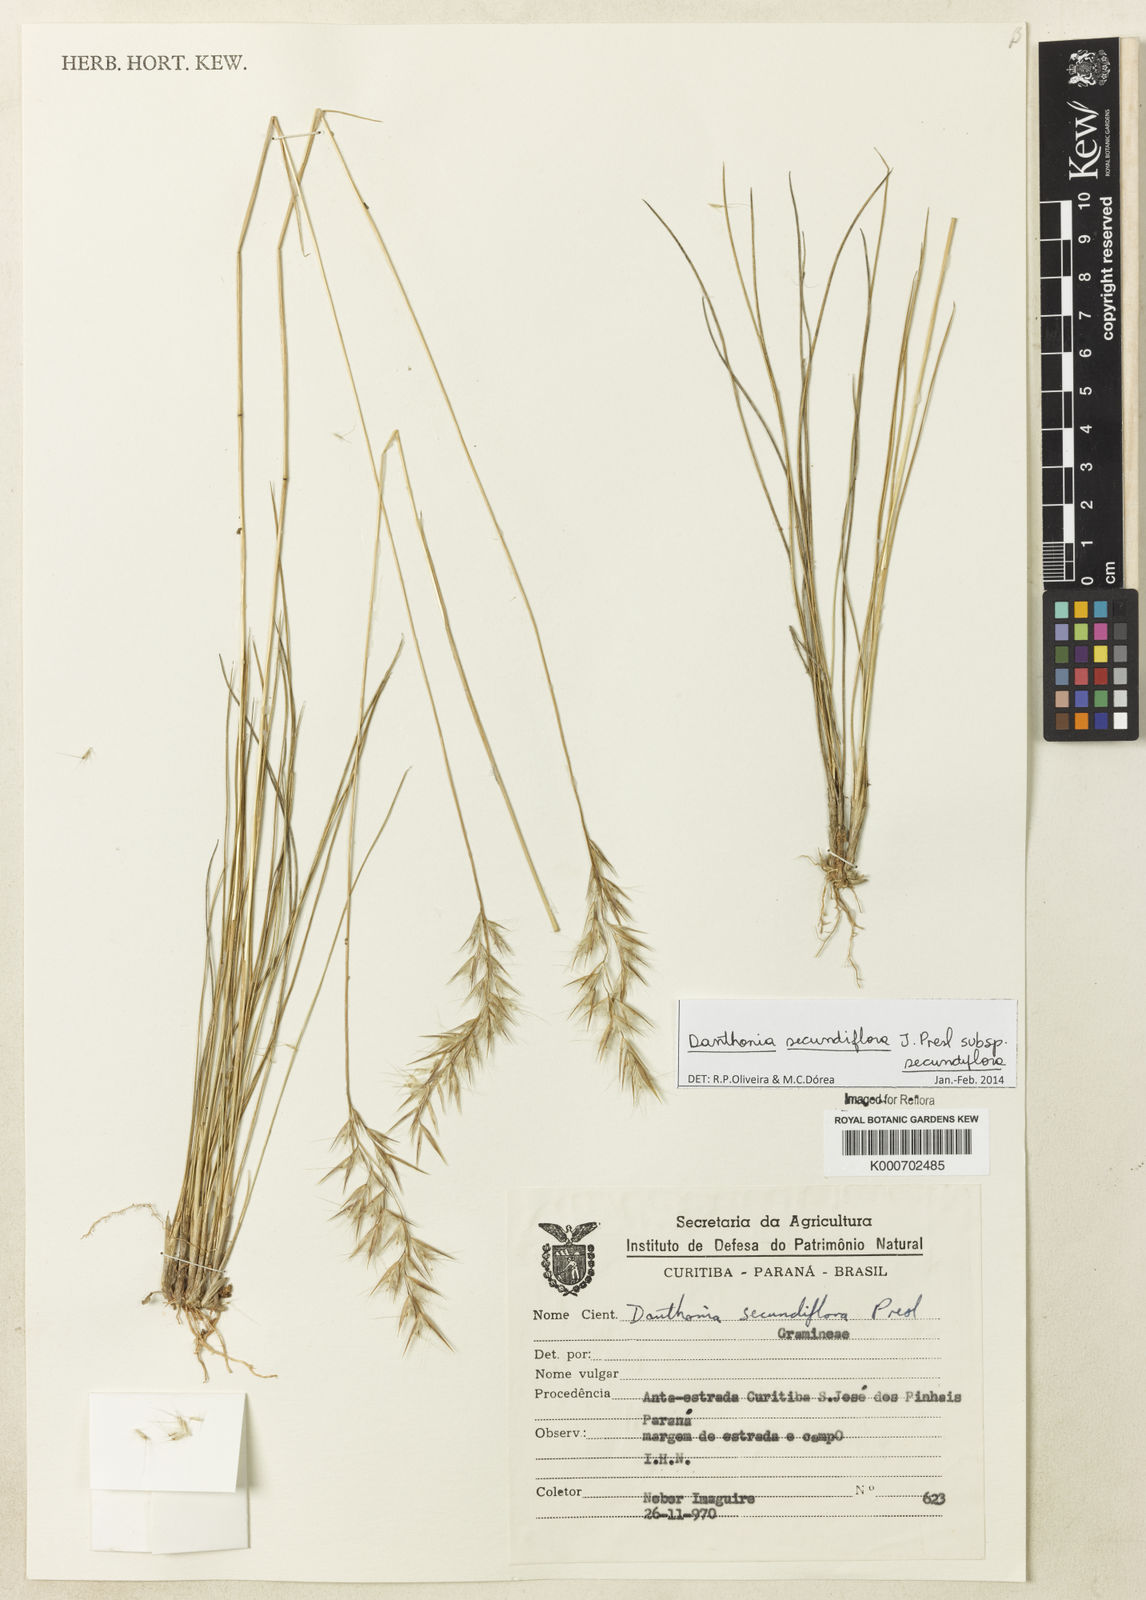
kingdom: Plantae
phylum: Tracheophyta
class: Liliopsida
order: Poales
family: Poaceae
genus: Danthonia
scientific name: Danthonia secundiflora
